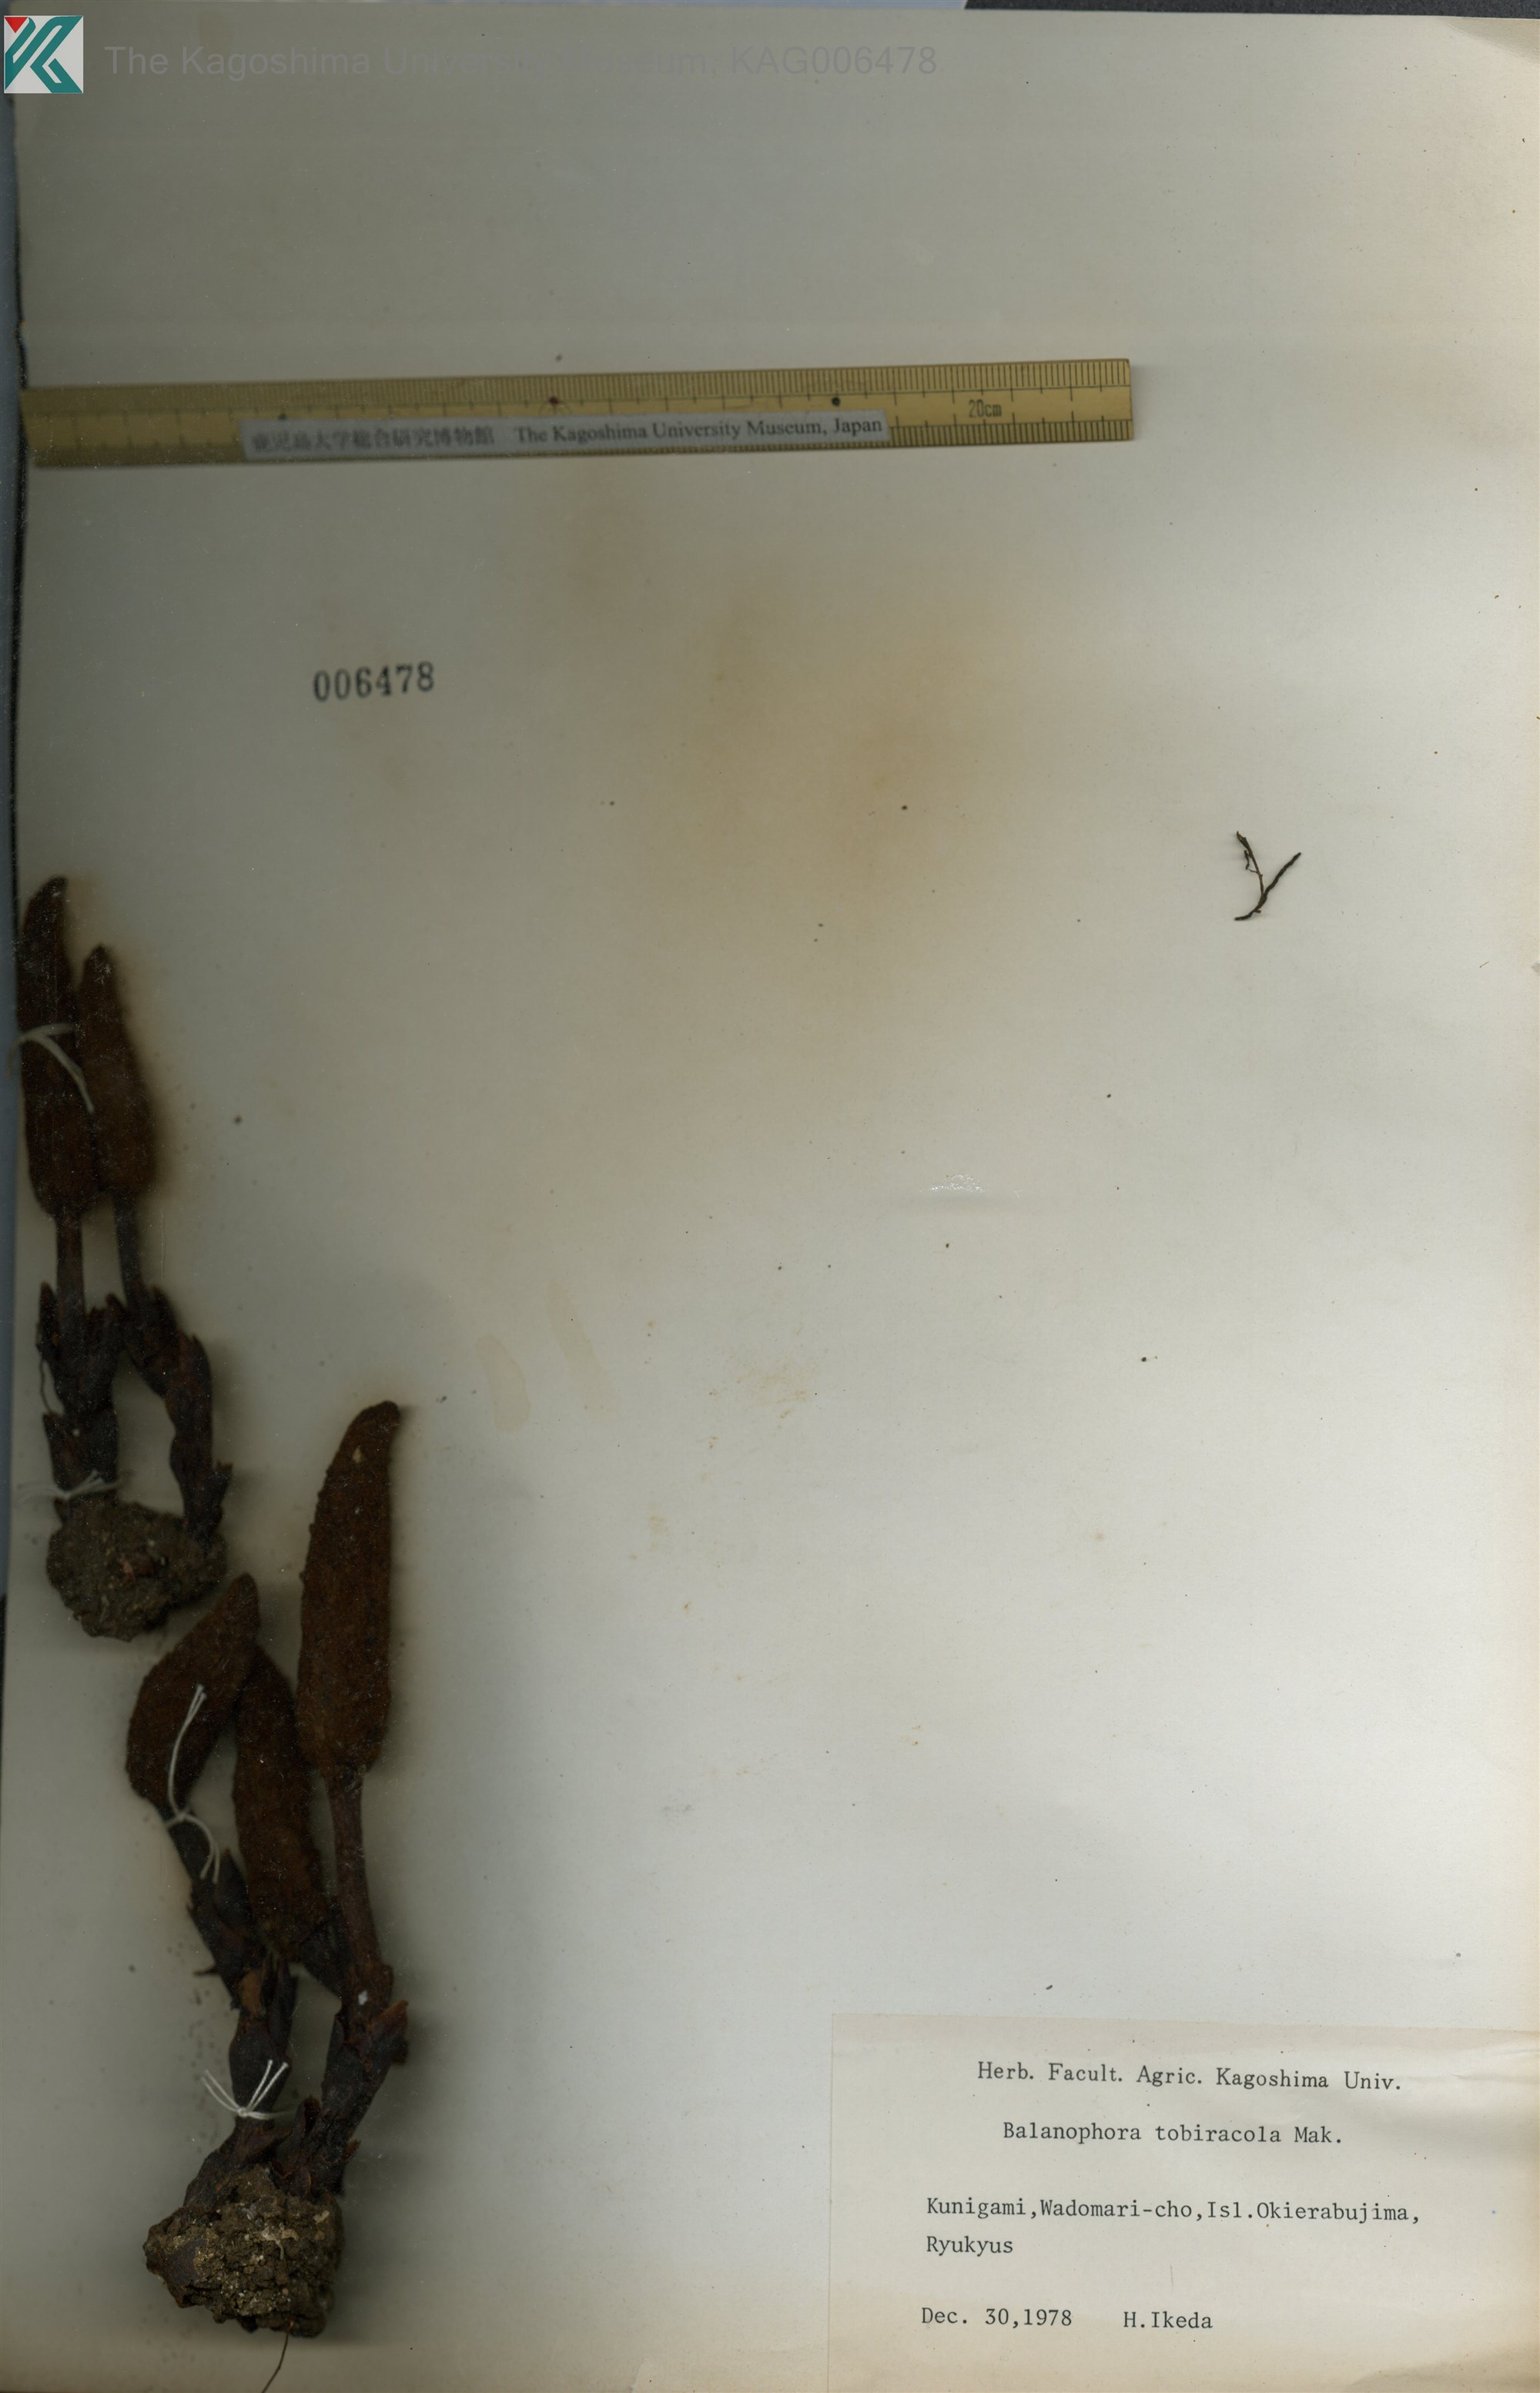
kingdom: Plantae
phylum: Tracheophyta
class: Magnoliopsida
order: Santalales
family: Balanophoraceae
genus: Balanophora
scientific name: Balanophora tobiracola
